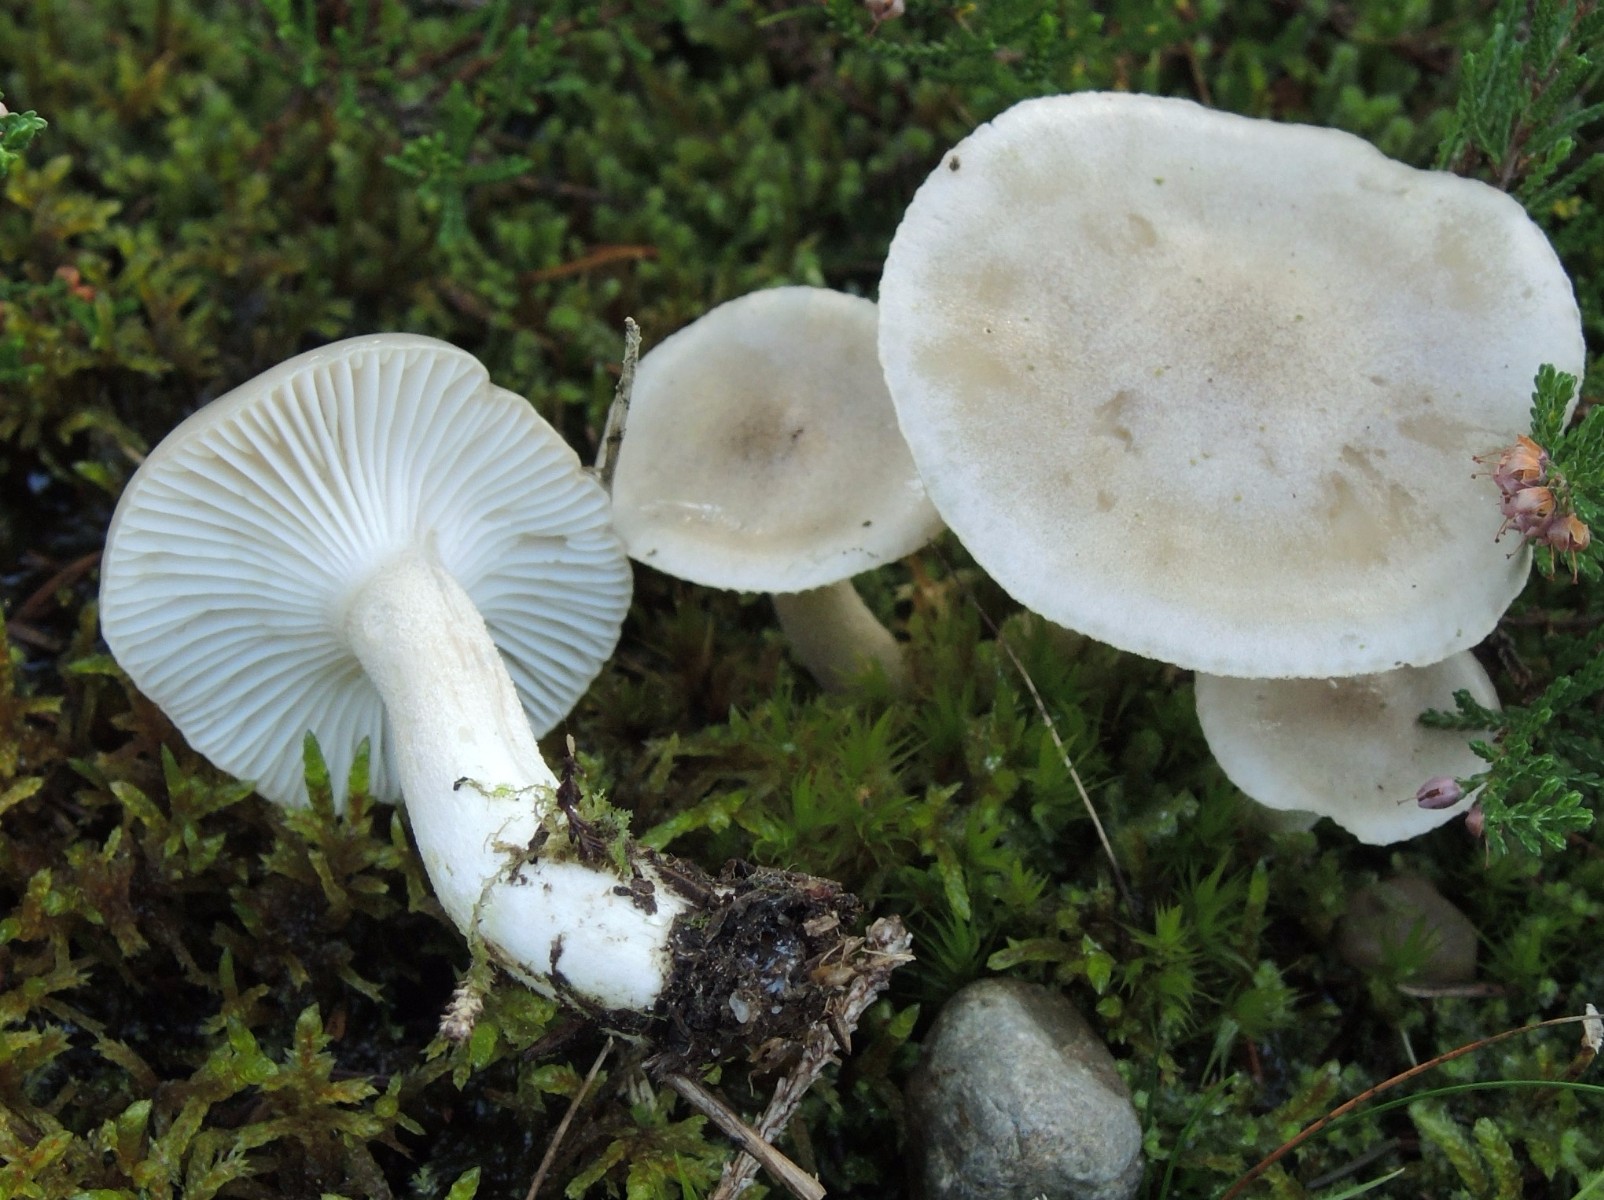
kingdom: Fungi
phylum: Basidiomycota
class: Agaricomycetes
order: Agaricales
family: Hygrophoraceae
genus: Hygrophorus
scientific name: Hygrophorus agathosmus
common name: vellugtende sneglehat
